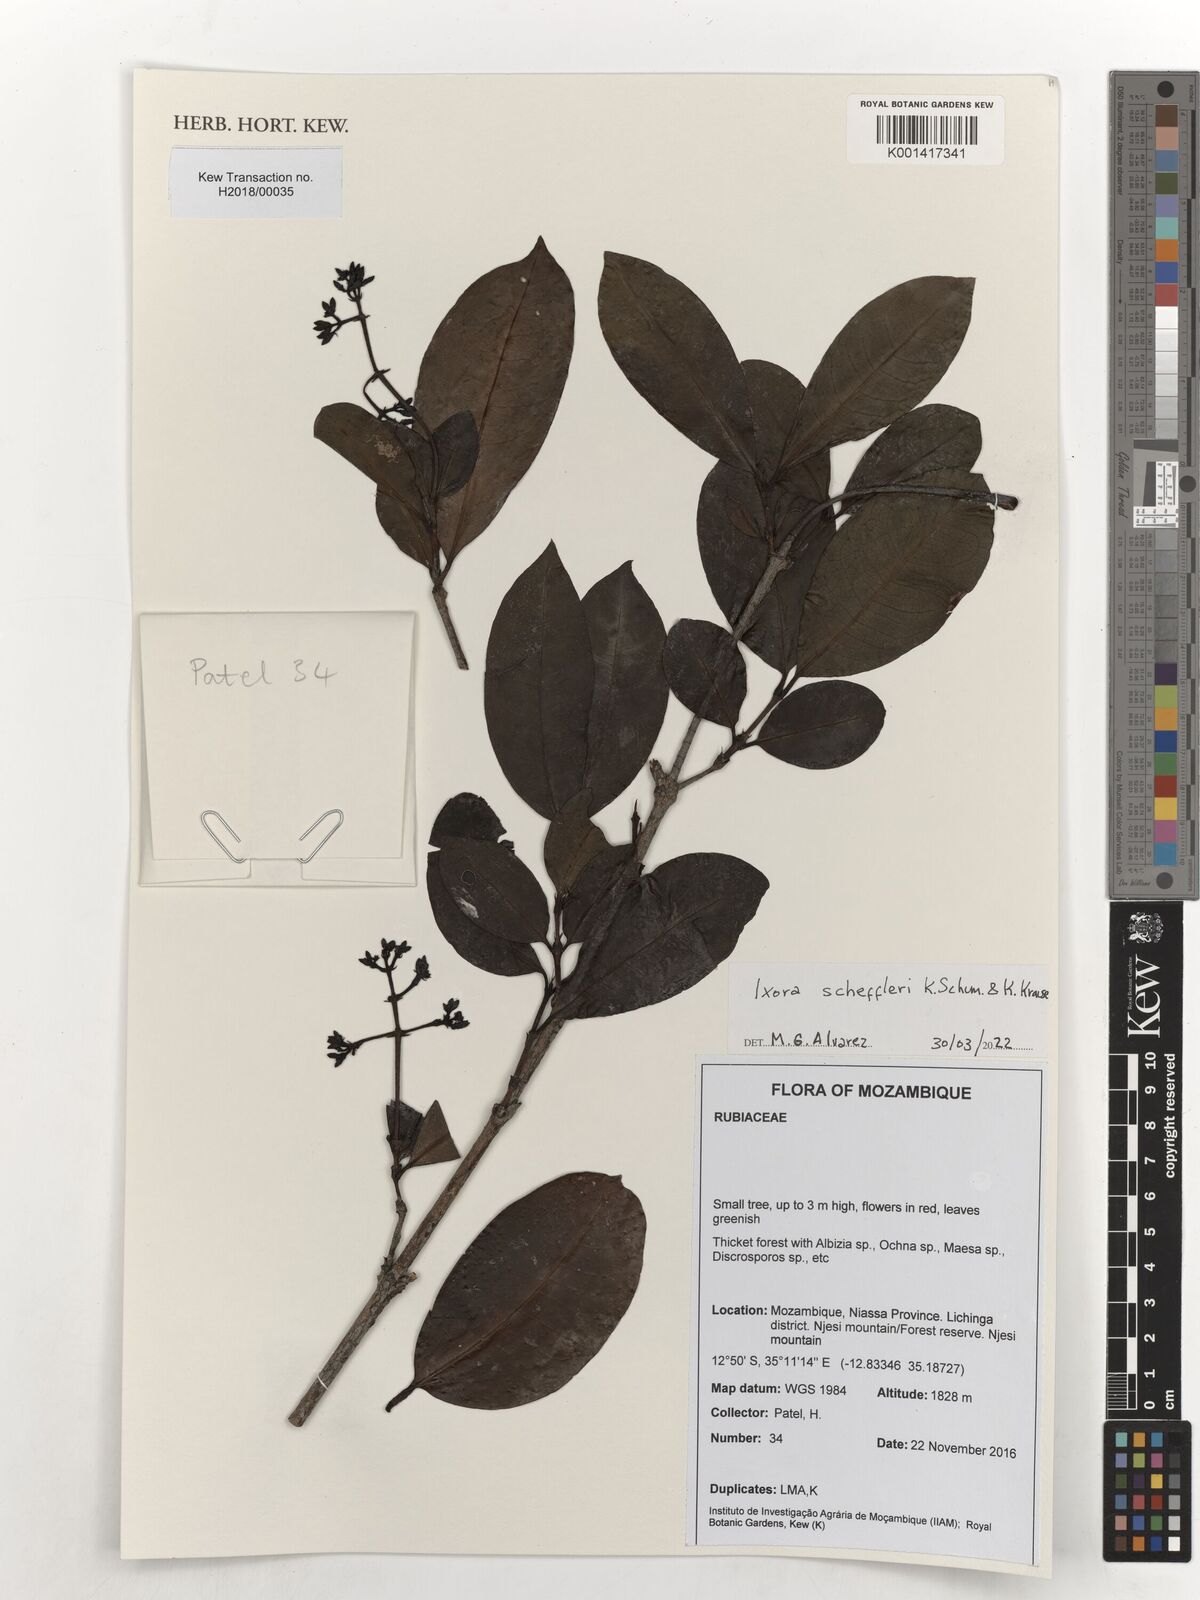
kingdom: Plantae
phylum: Tracheophyta
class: Magnoliopsida
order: Gentianales
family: Rubiaceae
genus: Ixora
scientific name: Ixora scheffleri
